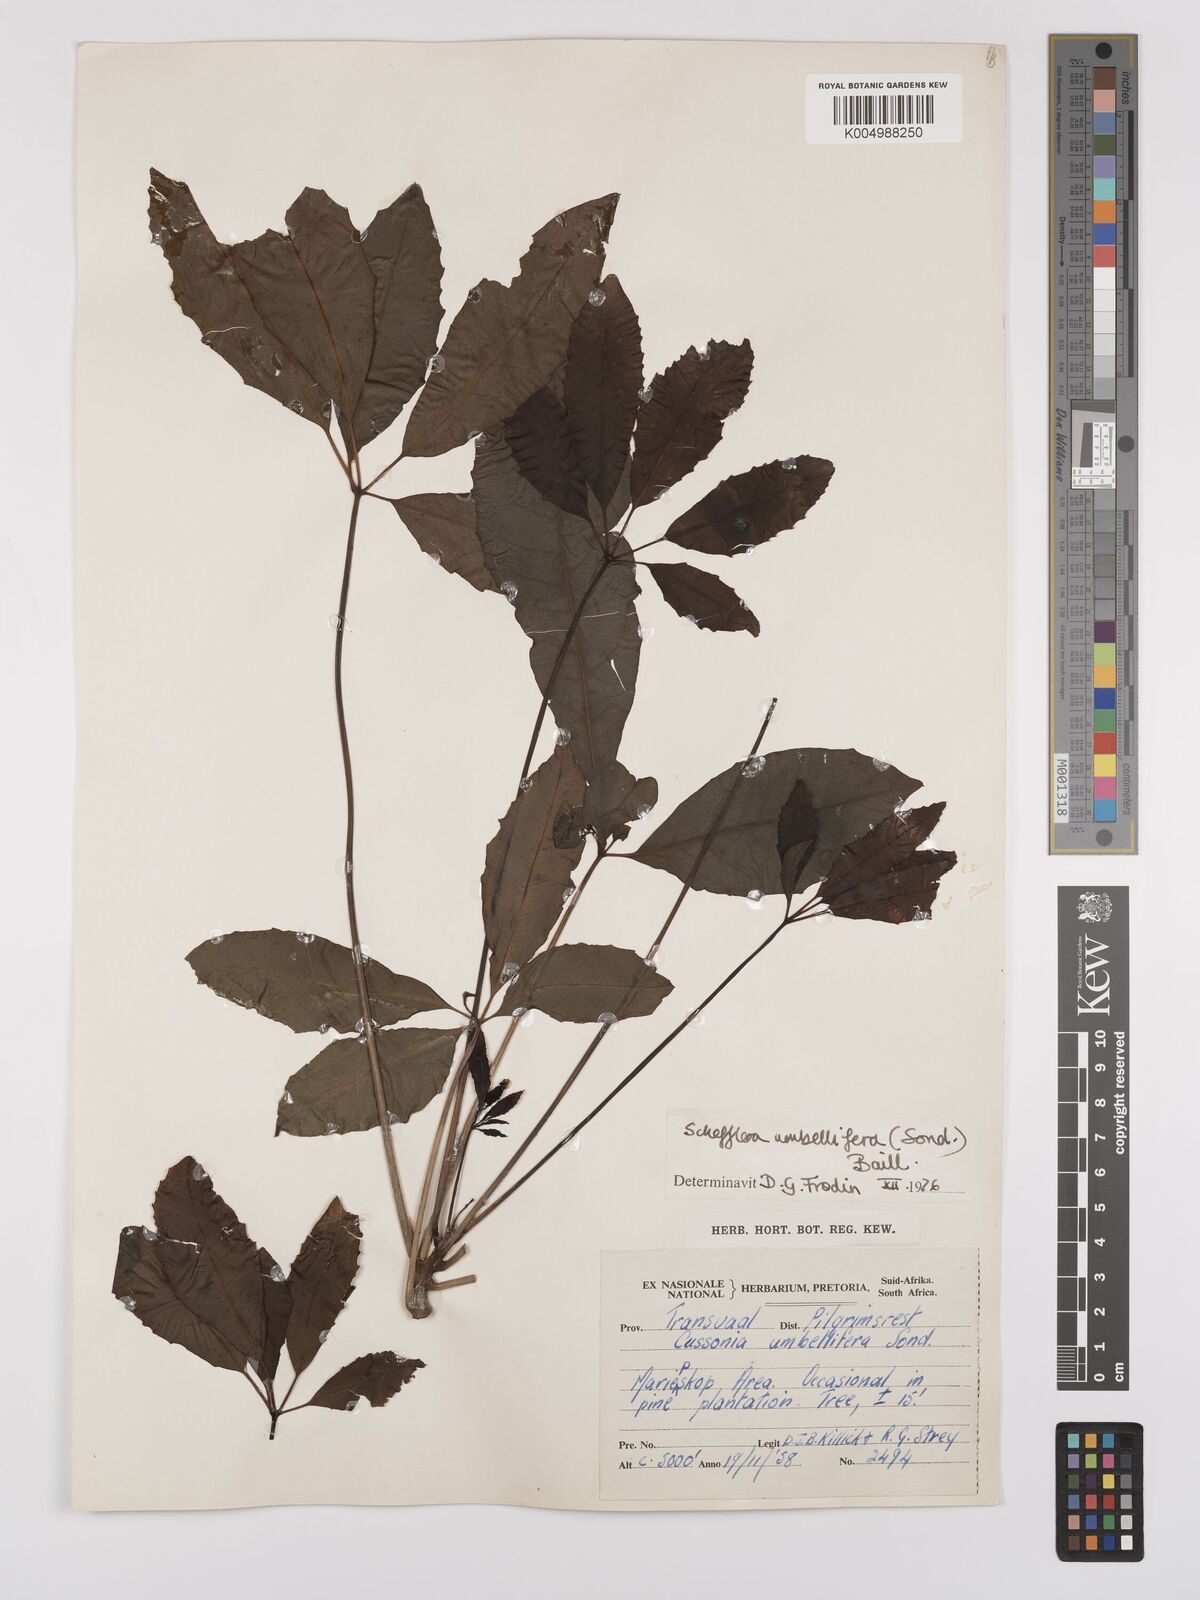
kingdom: Plantae
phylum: Tracheophyta
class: Magnoliopsida
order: Apiales
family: Araliaceae
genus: Neocussonia
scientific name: Neocussonia umbellifera
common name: False cabbage tree
